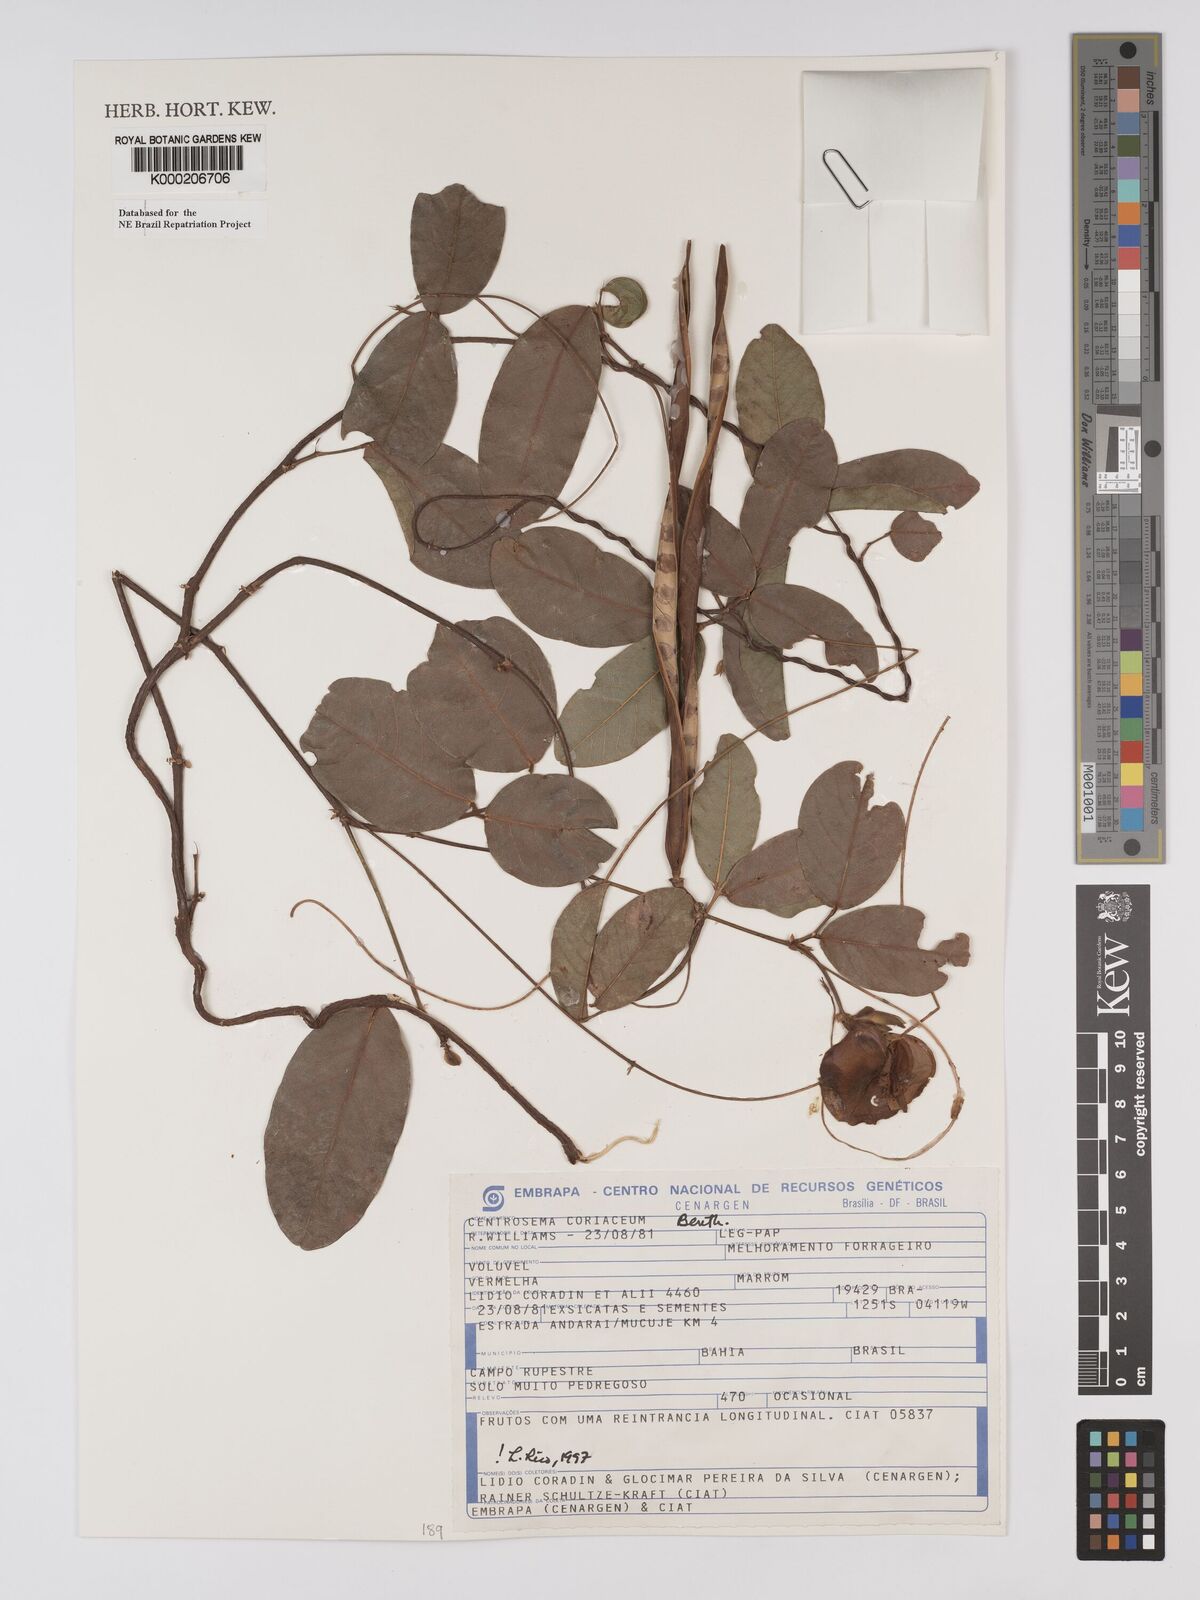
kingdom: Plantae
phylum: Tracheophyta
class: Magnoliopsida
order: Fabales
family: Fabaceae
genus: Centrosema
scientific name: Centrosema coriaceum
